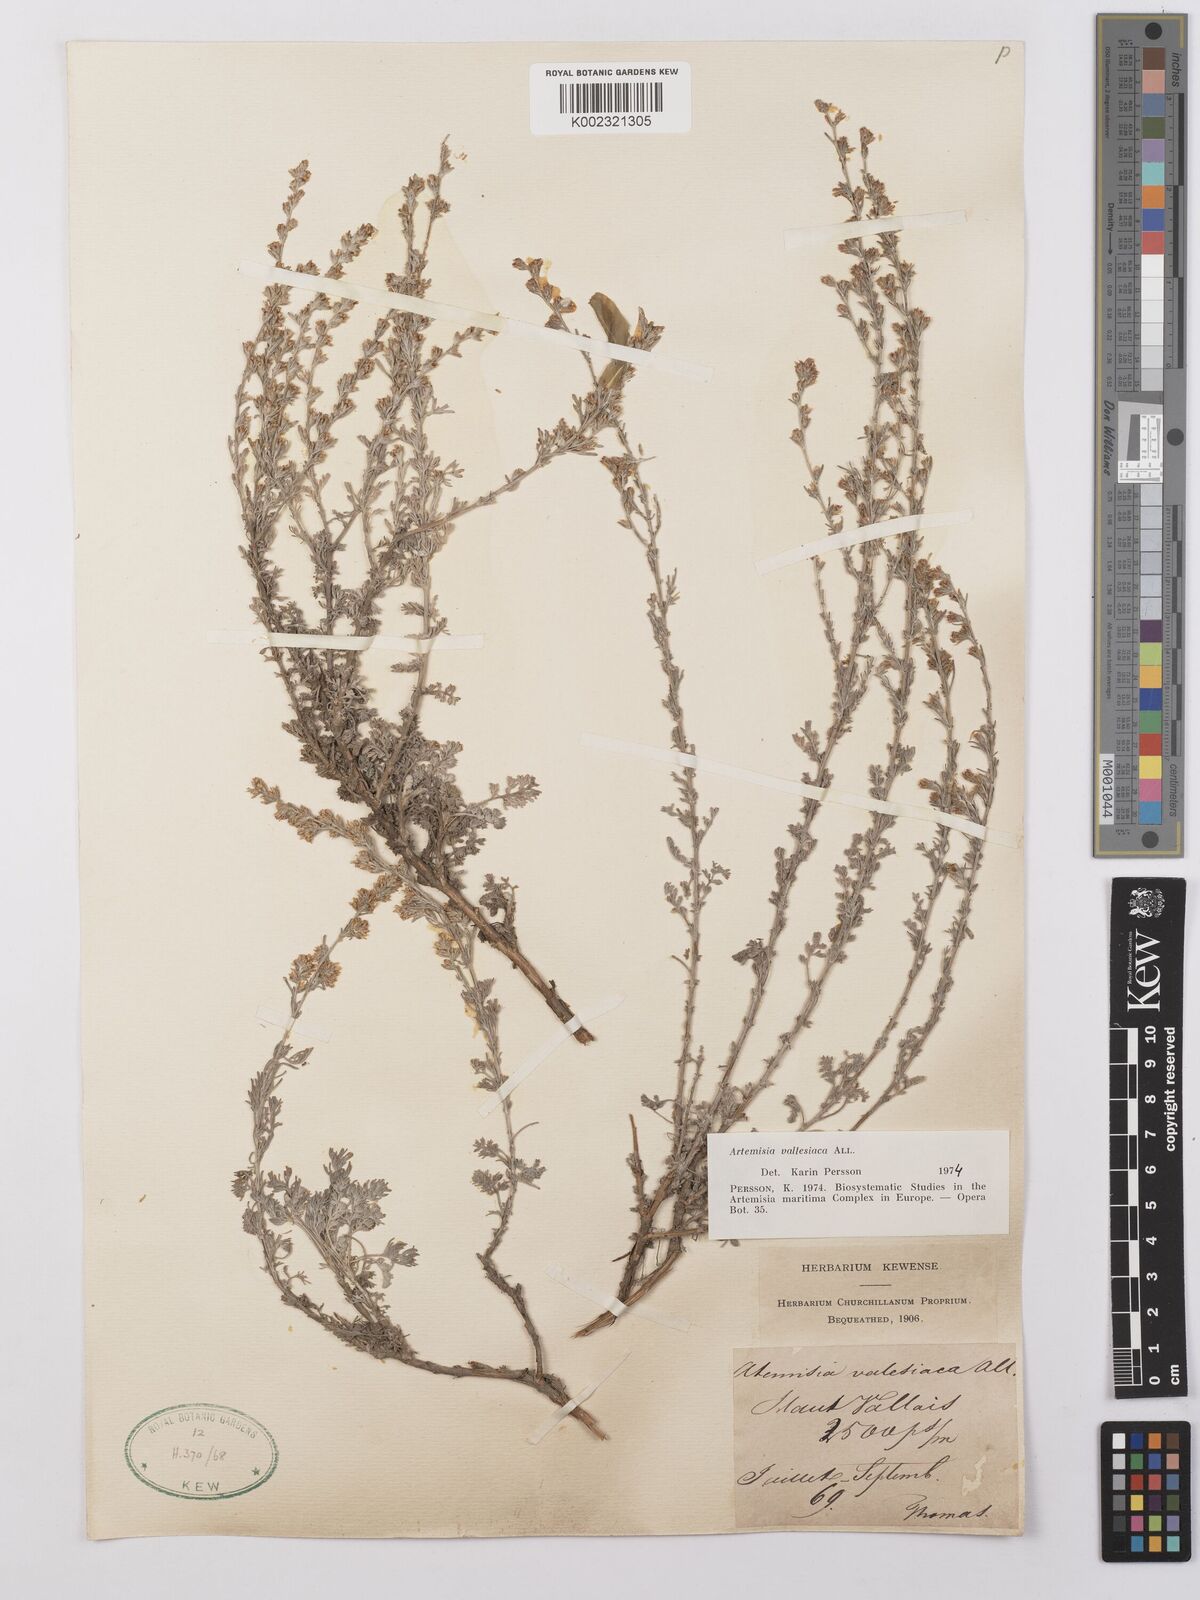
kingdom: Plantae
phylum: Tracheophyta
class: Magnoliopsida
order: Asterales
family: Asteraceae
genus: Artemisia
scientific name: Artemisia vallesiaca
